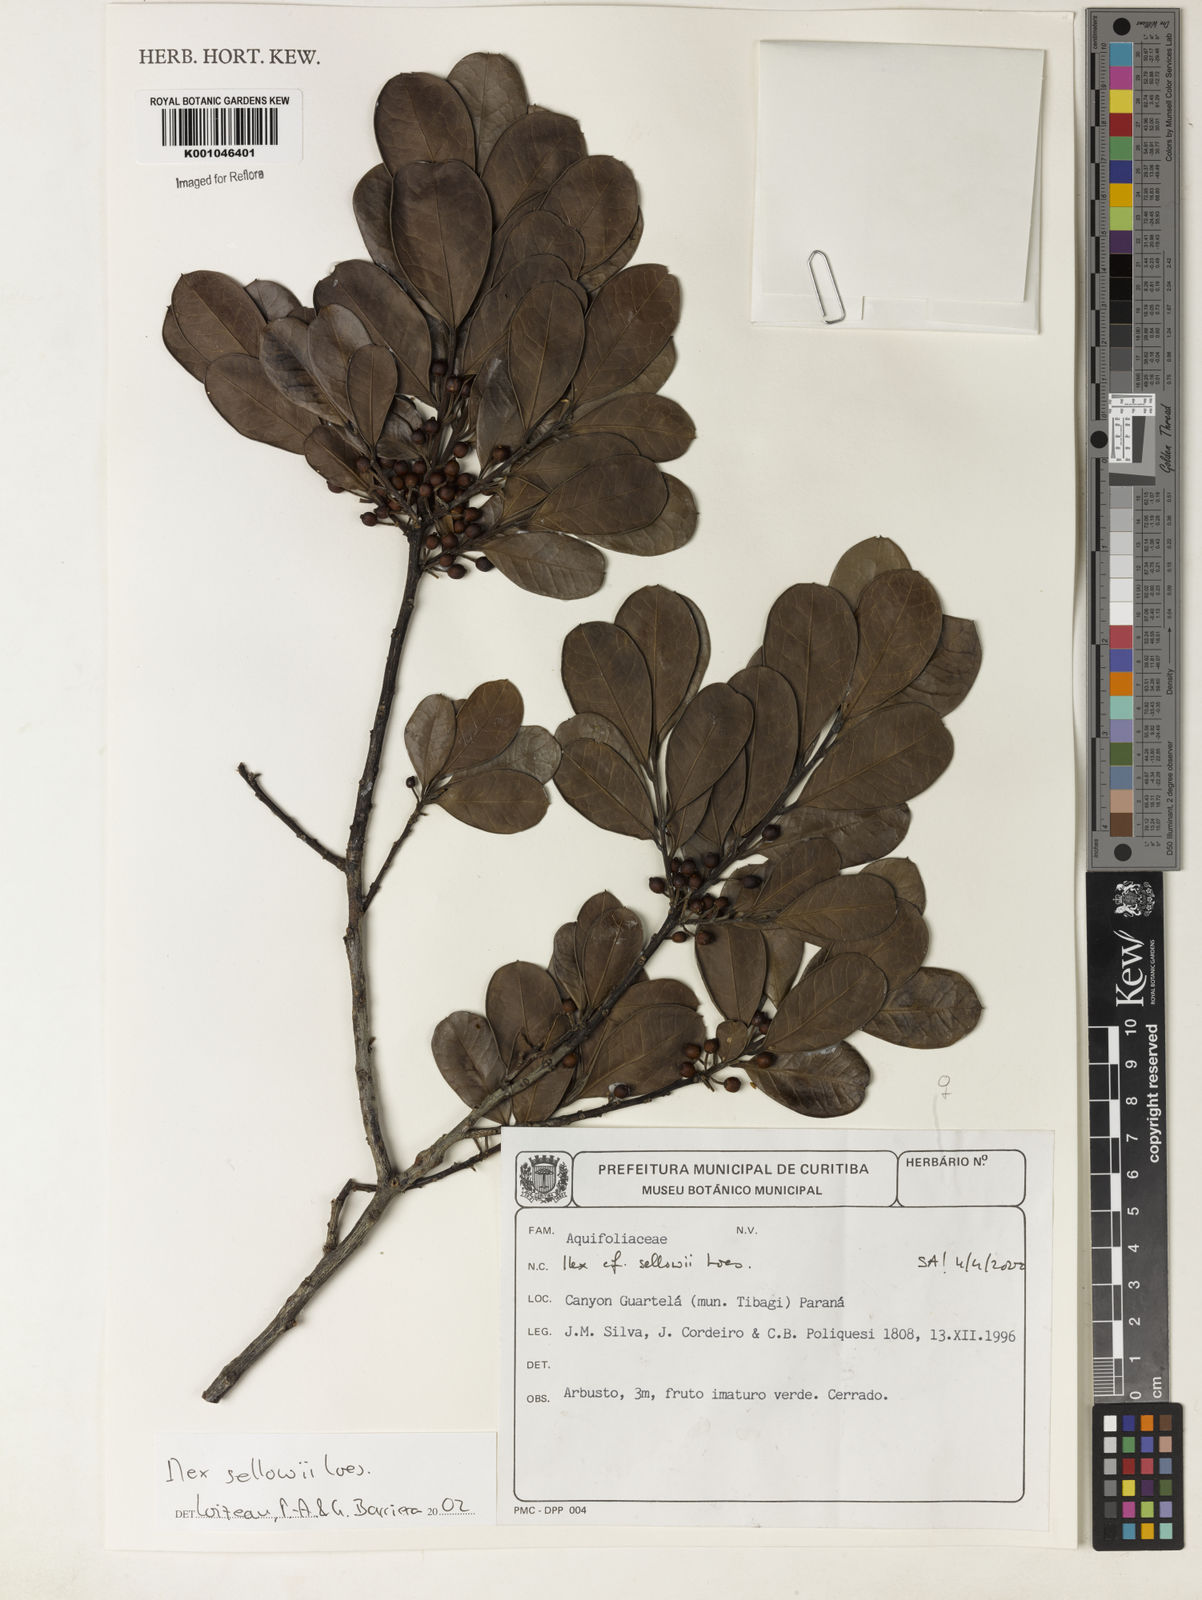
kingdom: Plantae
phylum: Tracheophyta
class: Magnoliopsida
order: Aquifoliales
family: Aquifoliaceae
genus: Ilex
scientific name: Ilex
